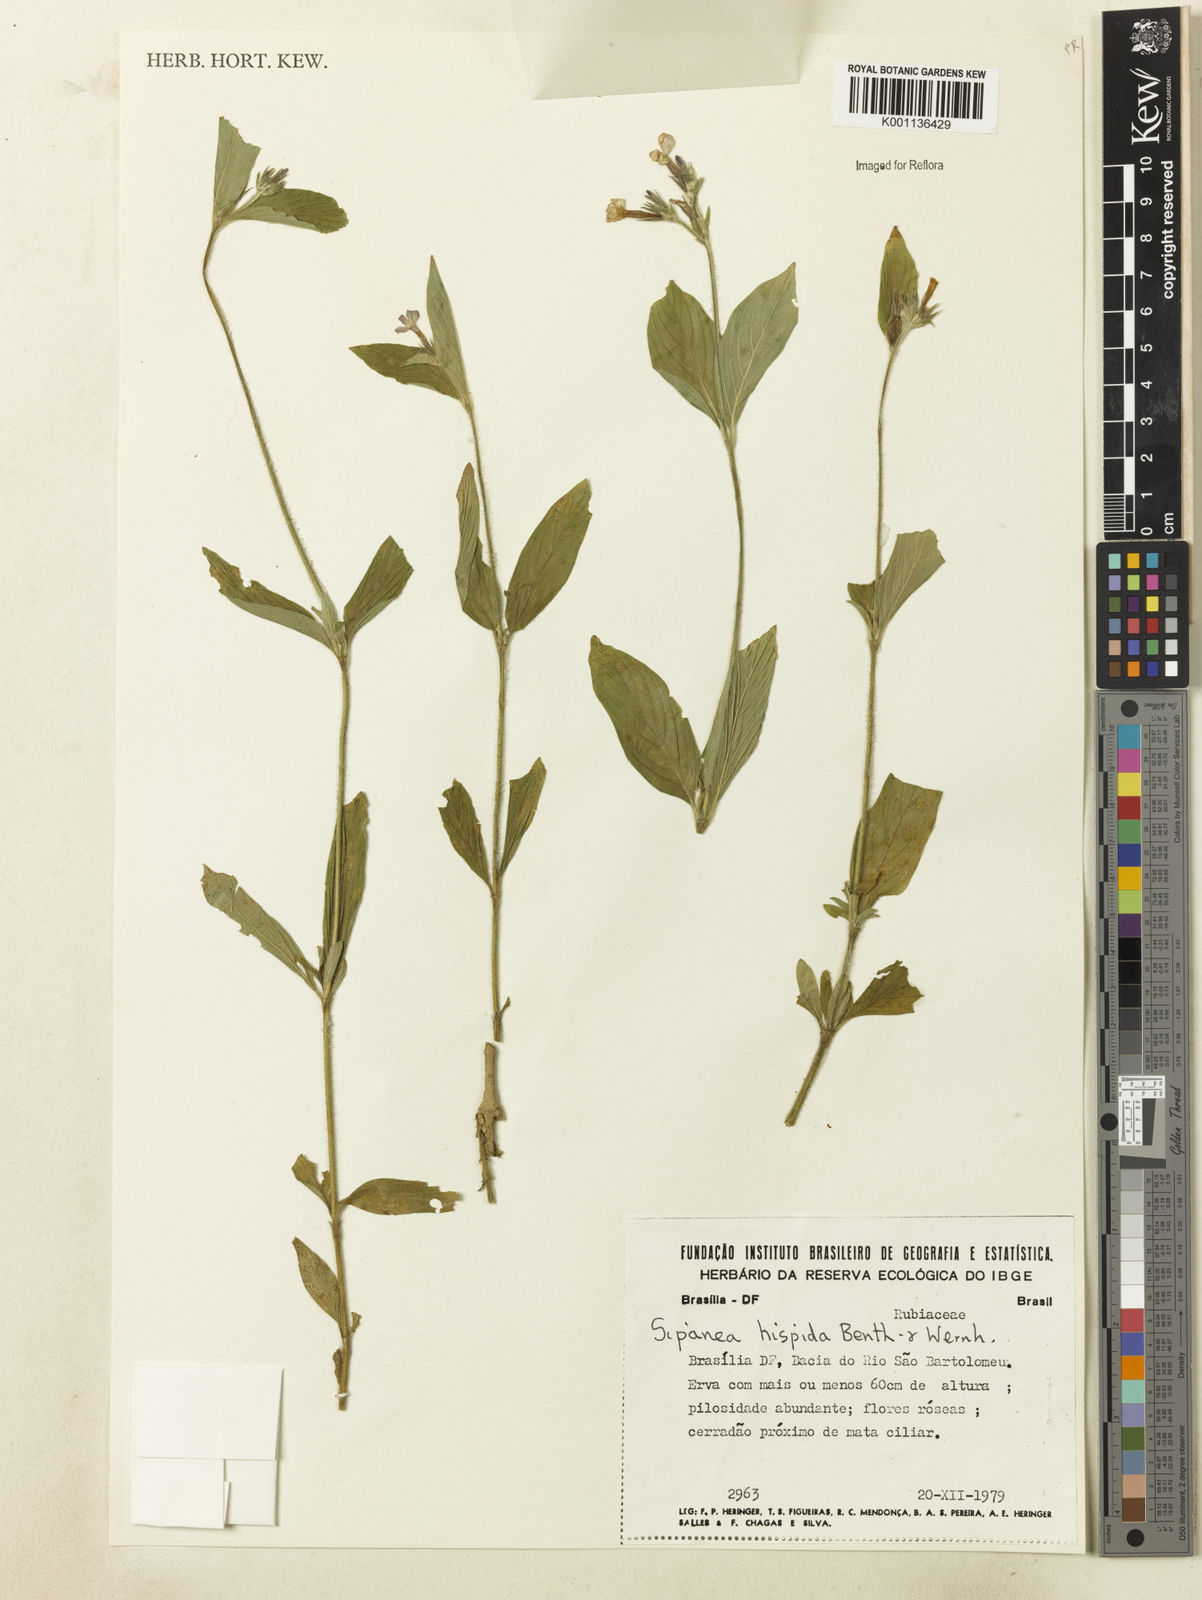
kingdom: Plantae
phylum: Tracheophyta
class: Magnoliopsida
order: Gentianales
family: Rubiaceae
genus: Sipanea
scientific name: Sipanea hispida
